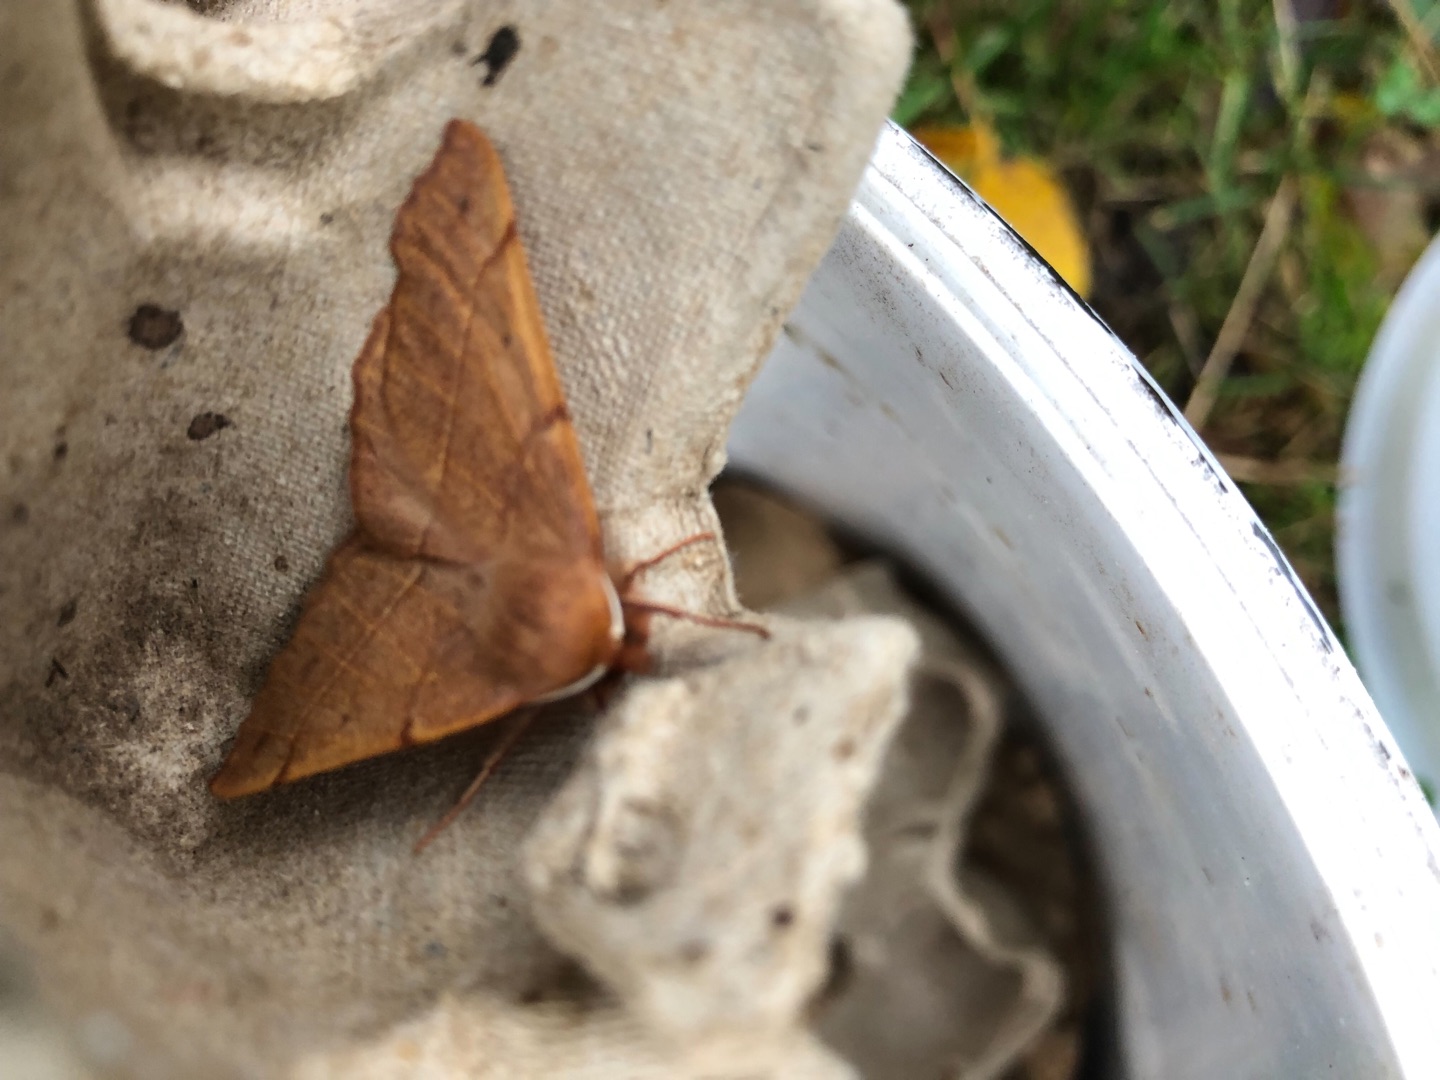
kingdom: Animalia
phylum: Arthropoda
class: Insecta
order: Lepidoptera
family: Geometridae
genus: Colotois
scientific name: Colotois pennaria
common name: Løvfaldsmåler
